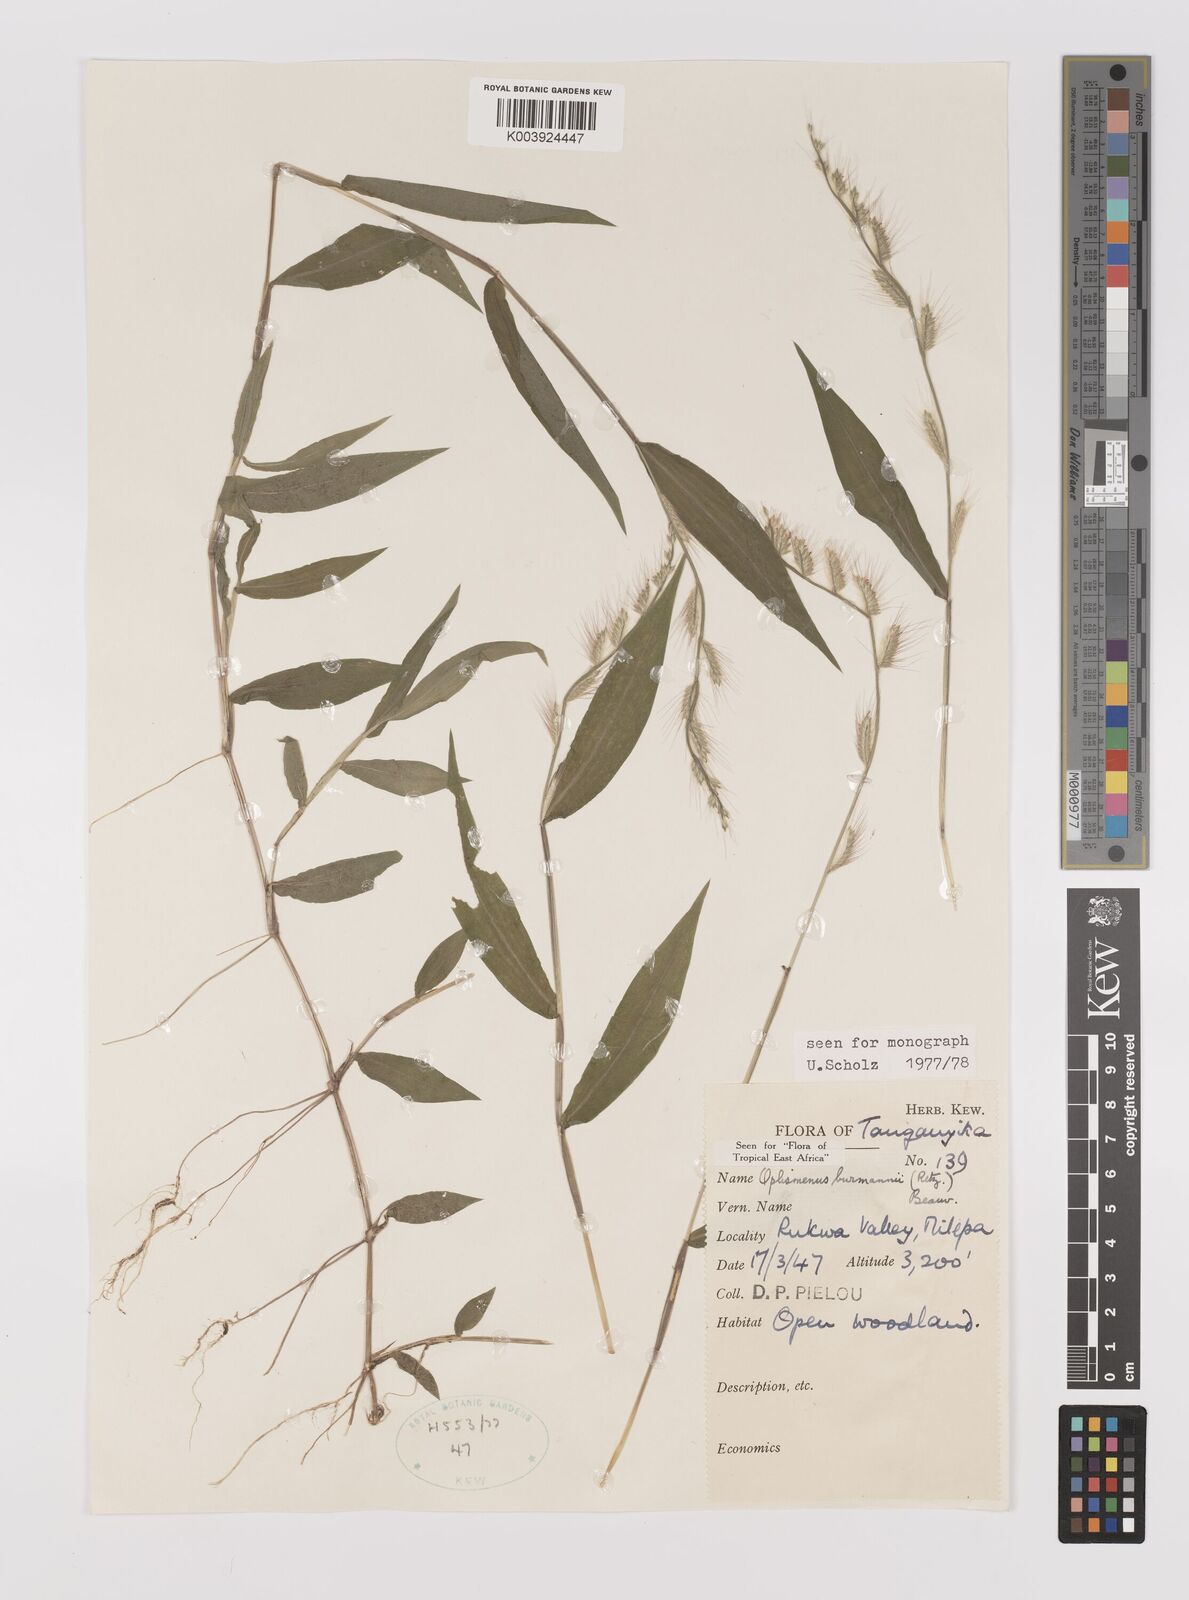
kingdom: Plantae
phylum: Tracheophyta
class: Liliopsida
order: Poales
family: Poaceae
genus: Oplismenus
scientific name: Oplismenus burmanni
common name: Burmann's basketgrass
